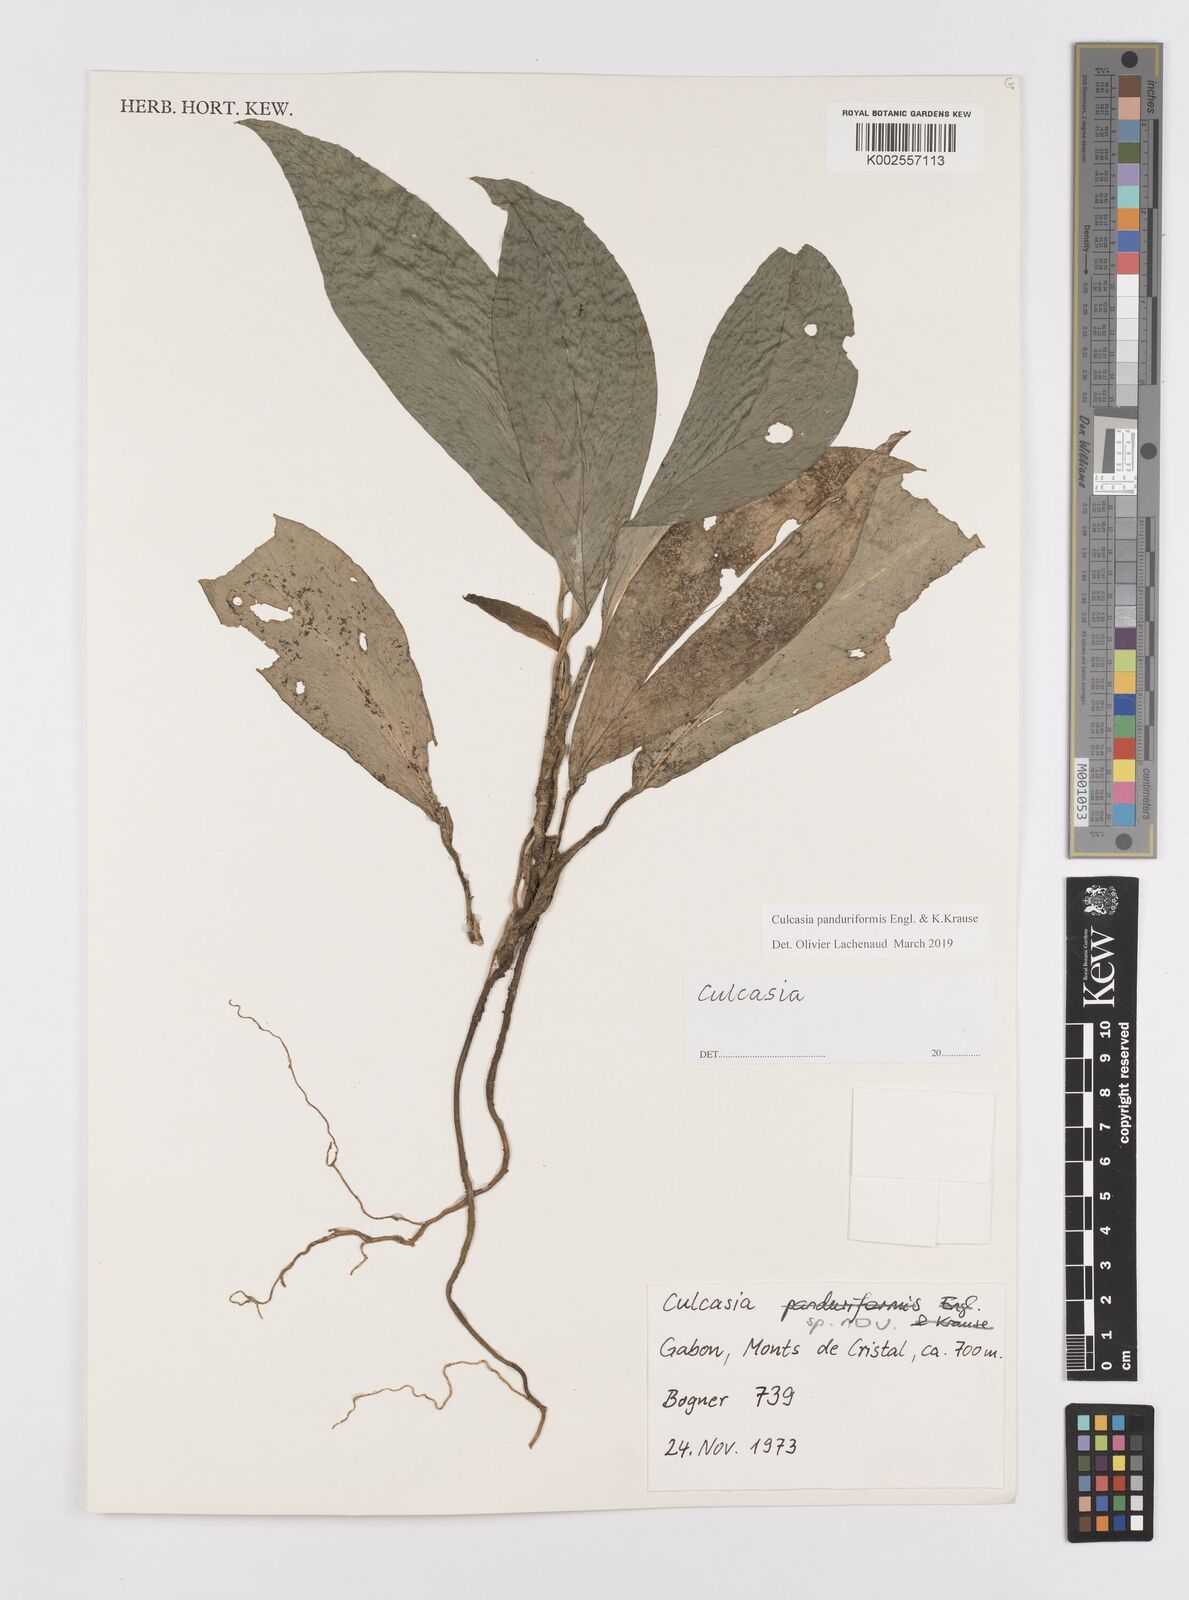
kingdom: Plantae
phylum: Tracheophyta
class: Liliopsida
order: Alismatales
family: Araceae
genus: Culcasia
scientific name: Culcasia panduriformis
